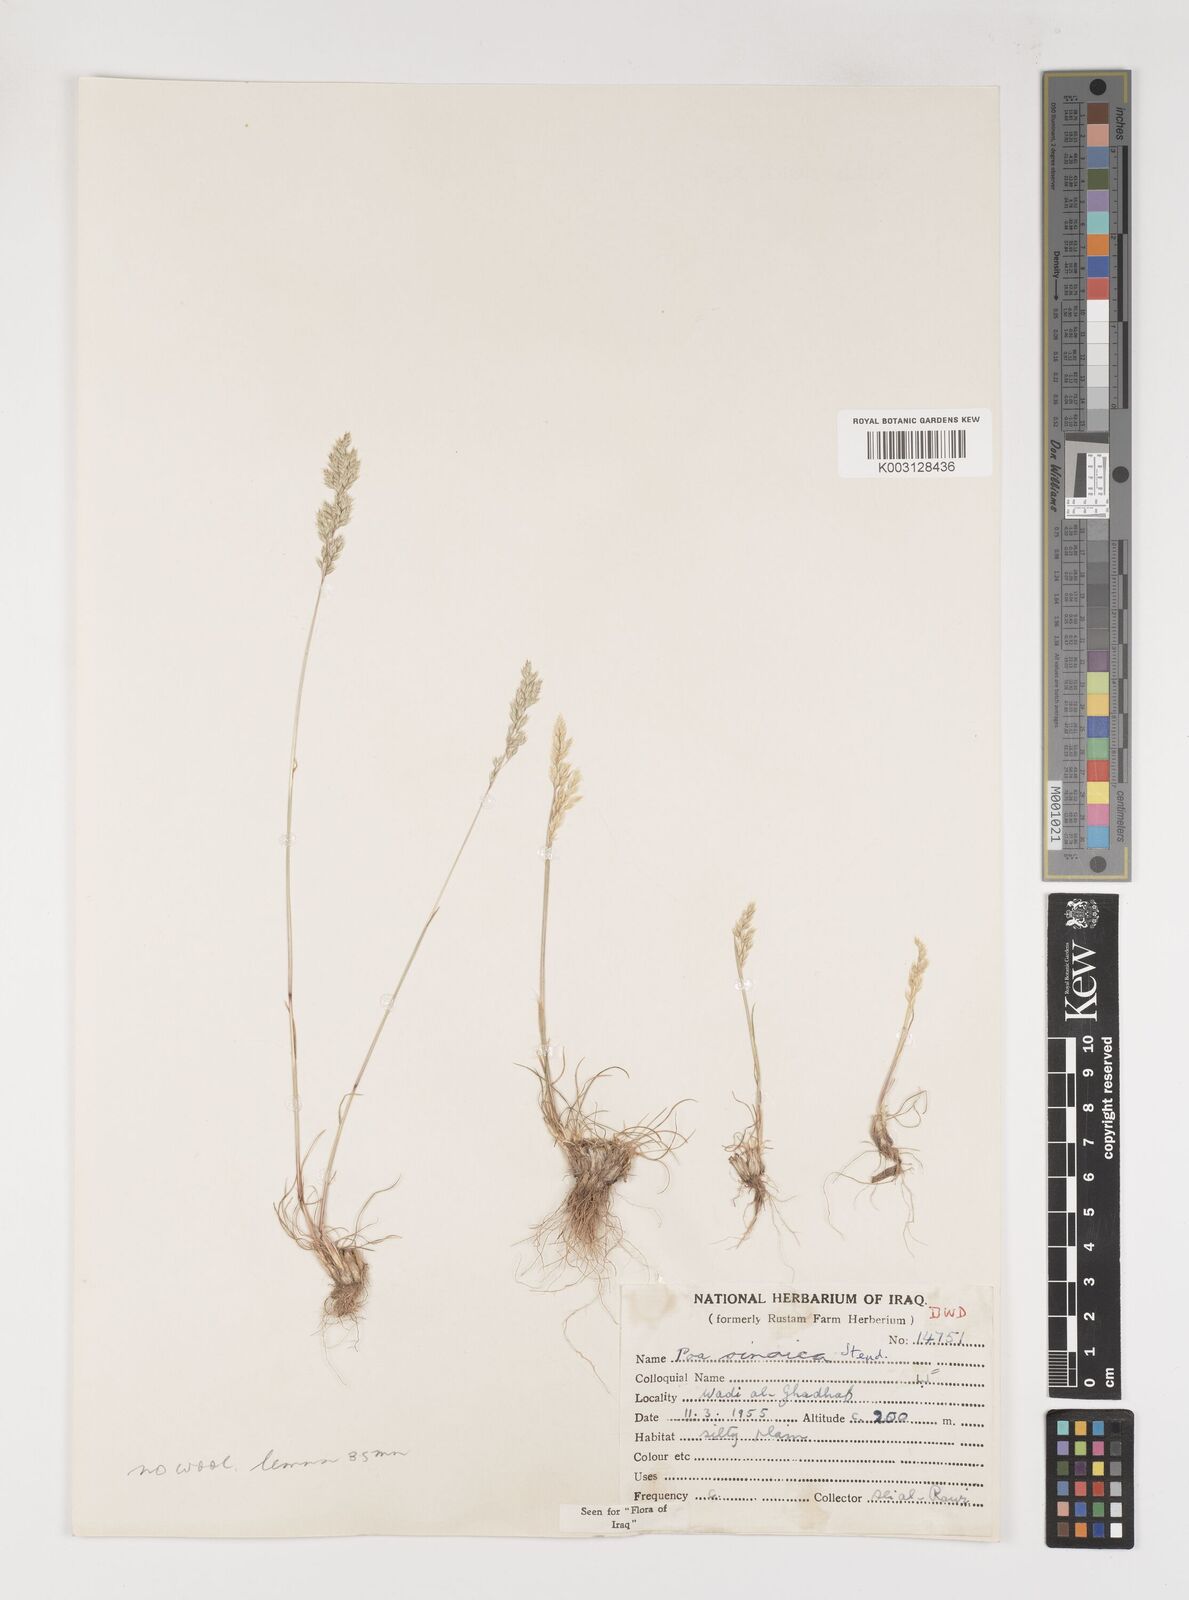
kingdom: Plantae
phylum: Tracheophyta
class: Liliopsida
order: Poales
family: Poaceae
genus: Poa
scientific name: Poa sinaica
